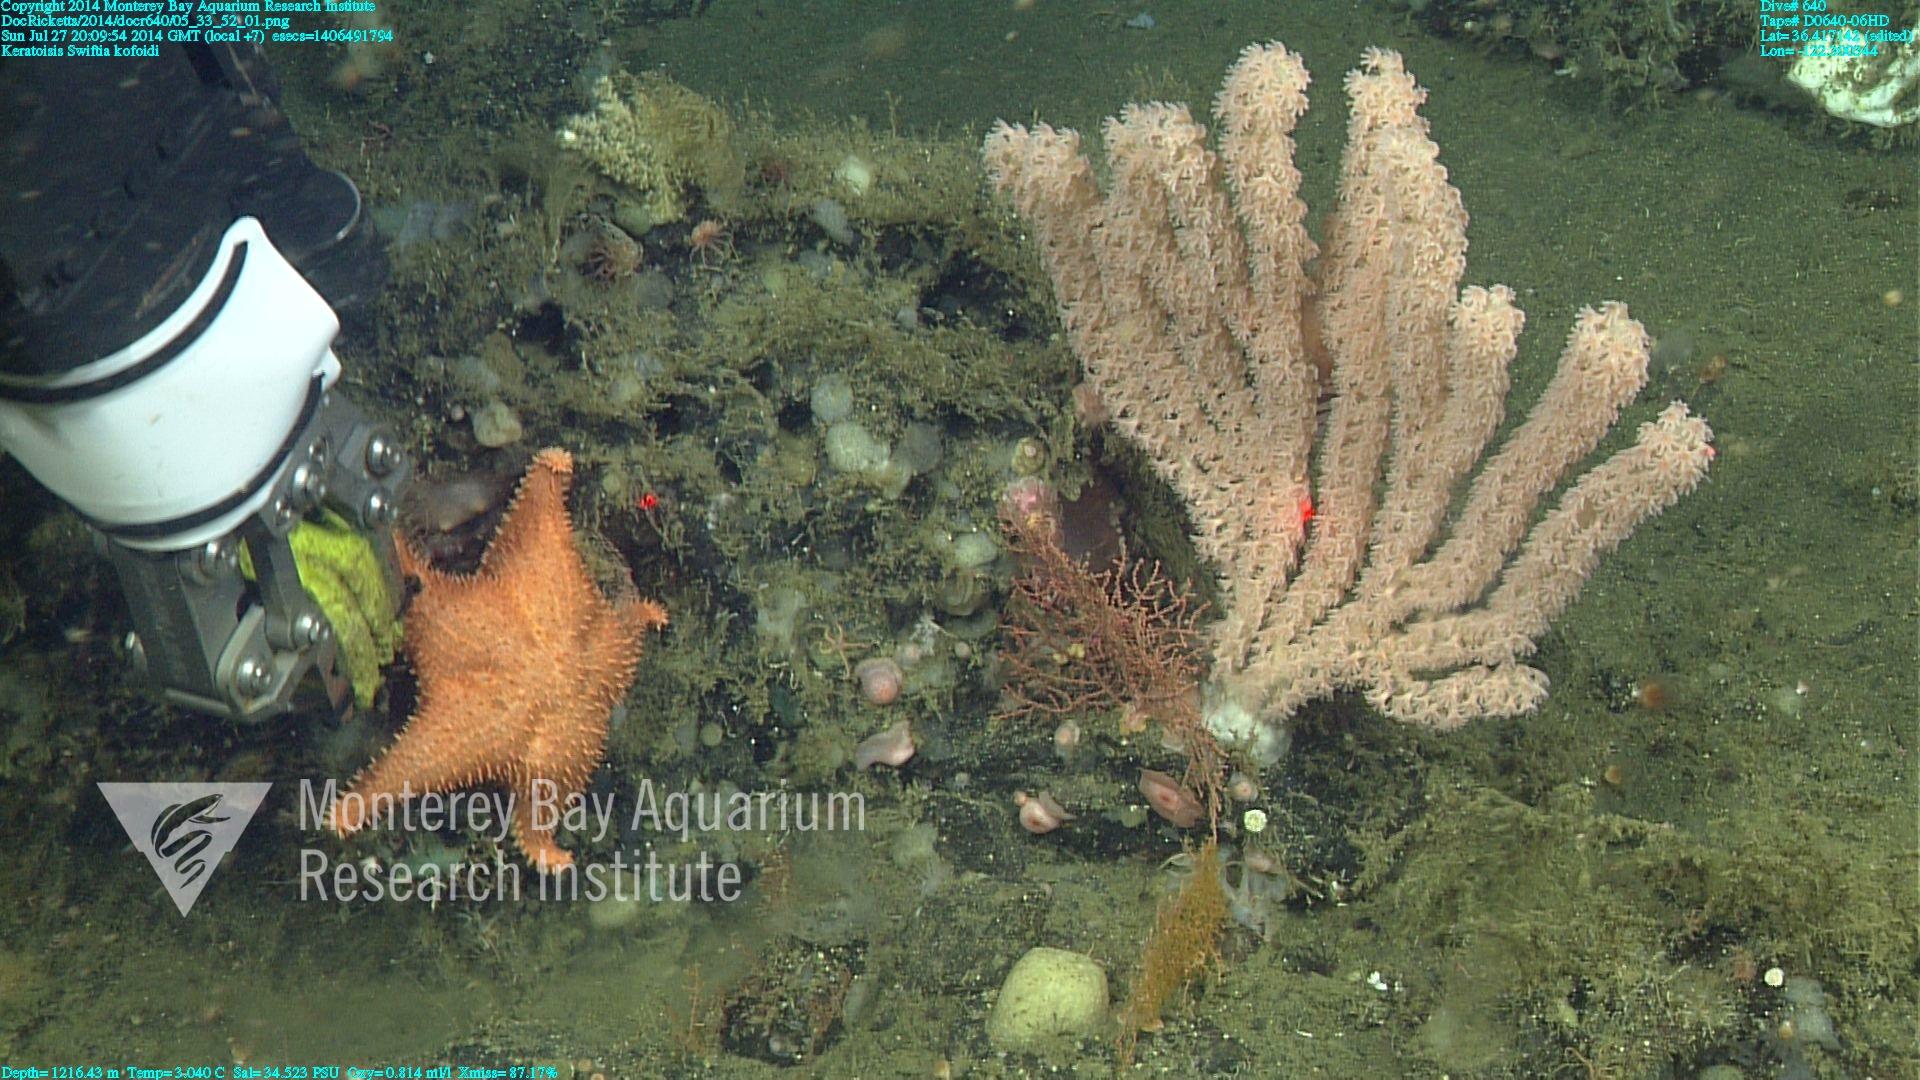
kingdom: Animalia
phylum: Cnidaria
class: Anthozoa
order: Malacalcyonacea
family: Gorgoniidae
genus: Callistephanus
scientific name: Callistephanus kofoidi
